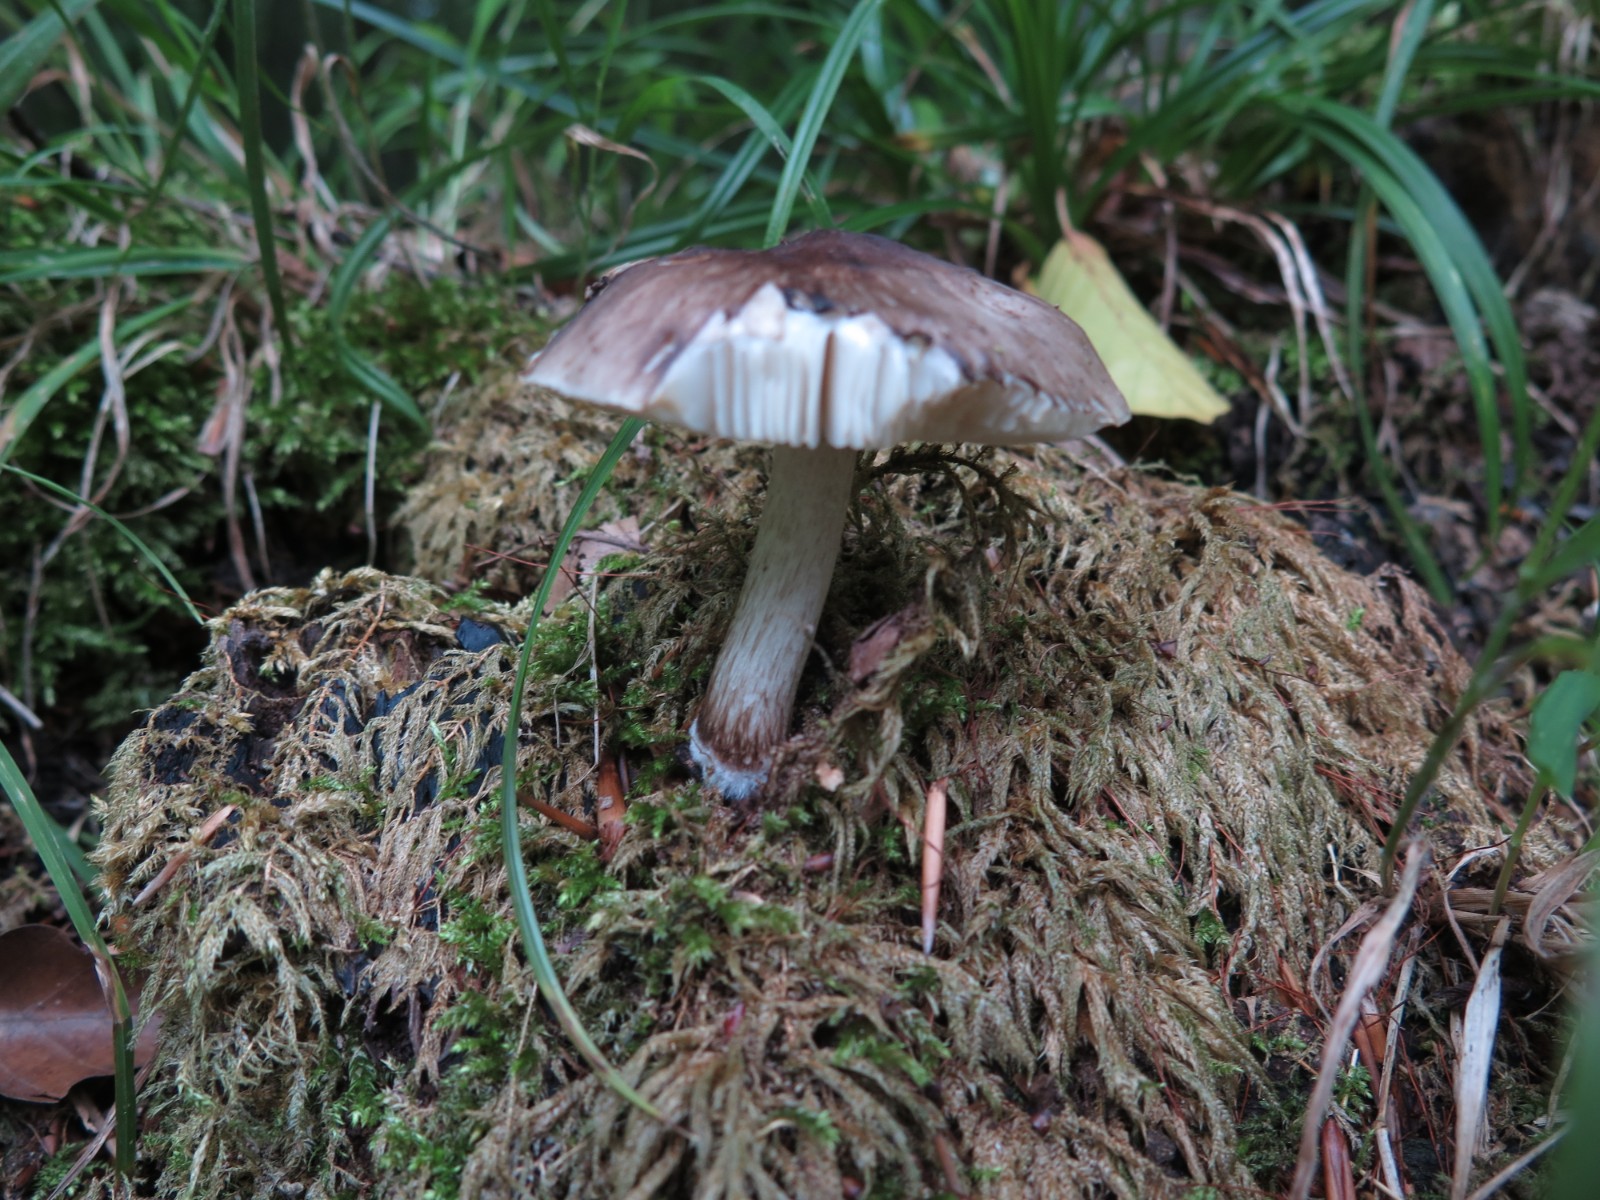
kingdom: Fungi
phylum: Basidiomycota
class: Agaricomycetes
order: Agaricales
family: Pluteaceae
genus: Pluteus
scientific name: Pluteus cervinus
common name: sodfarvet skærmhat
